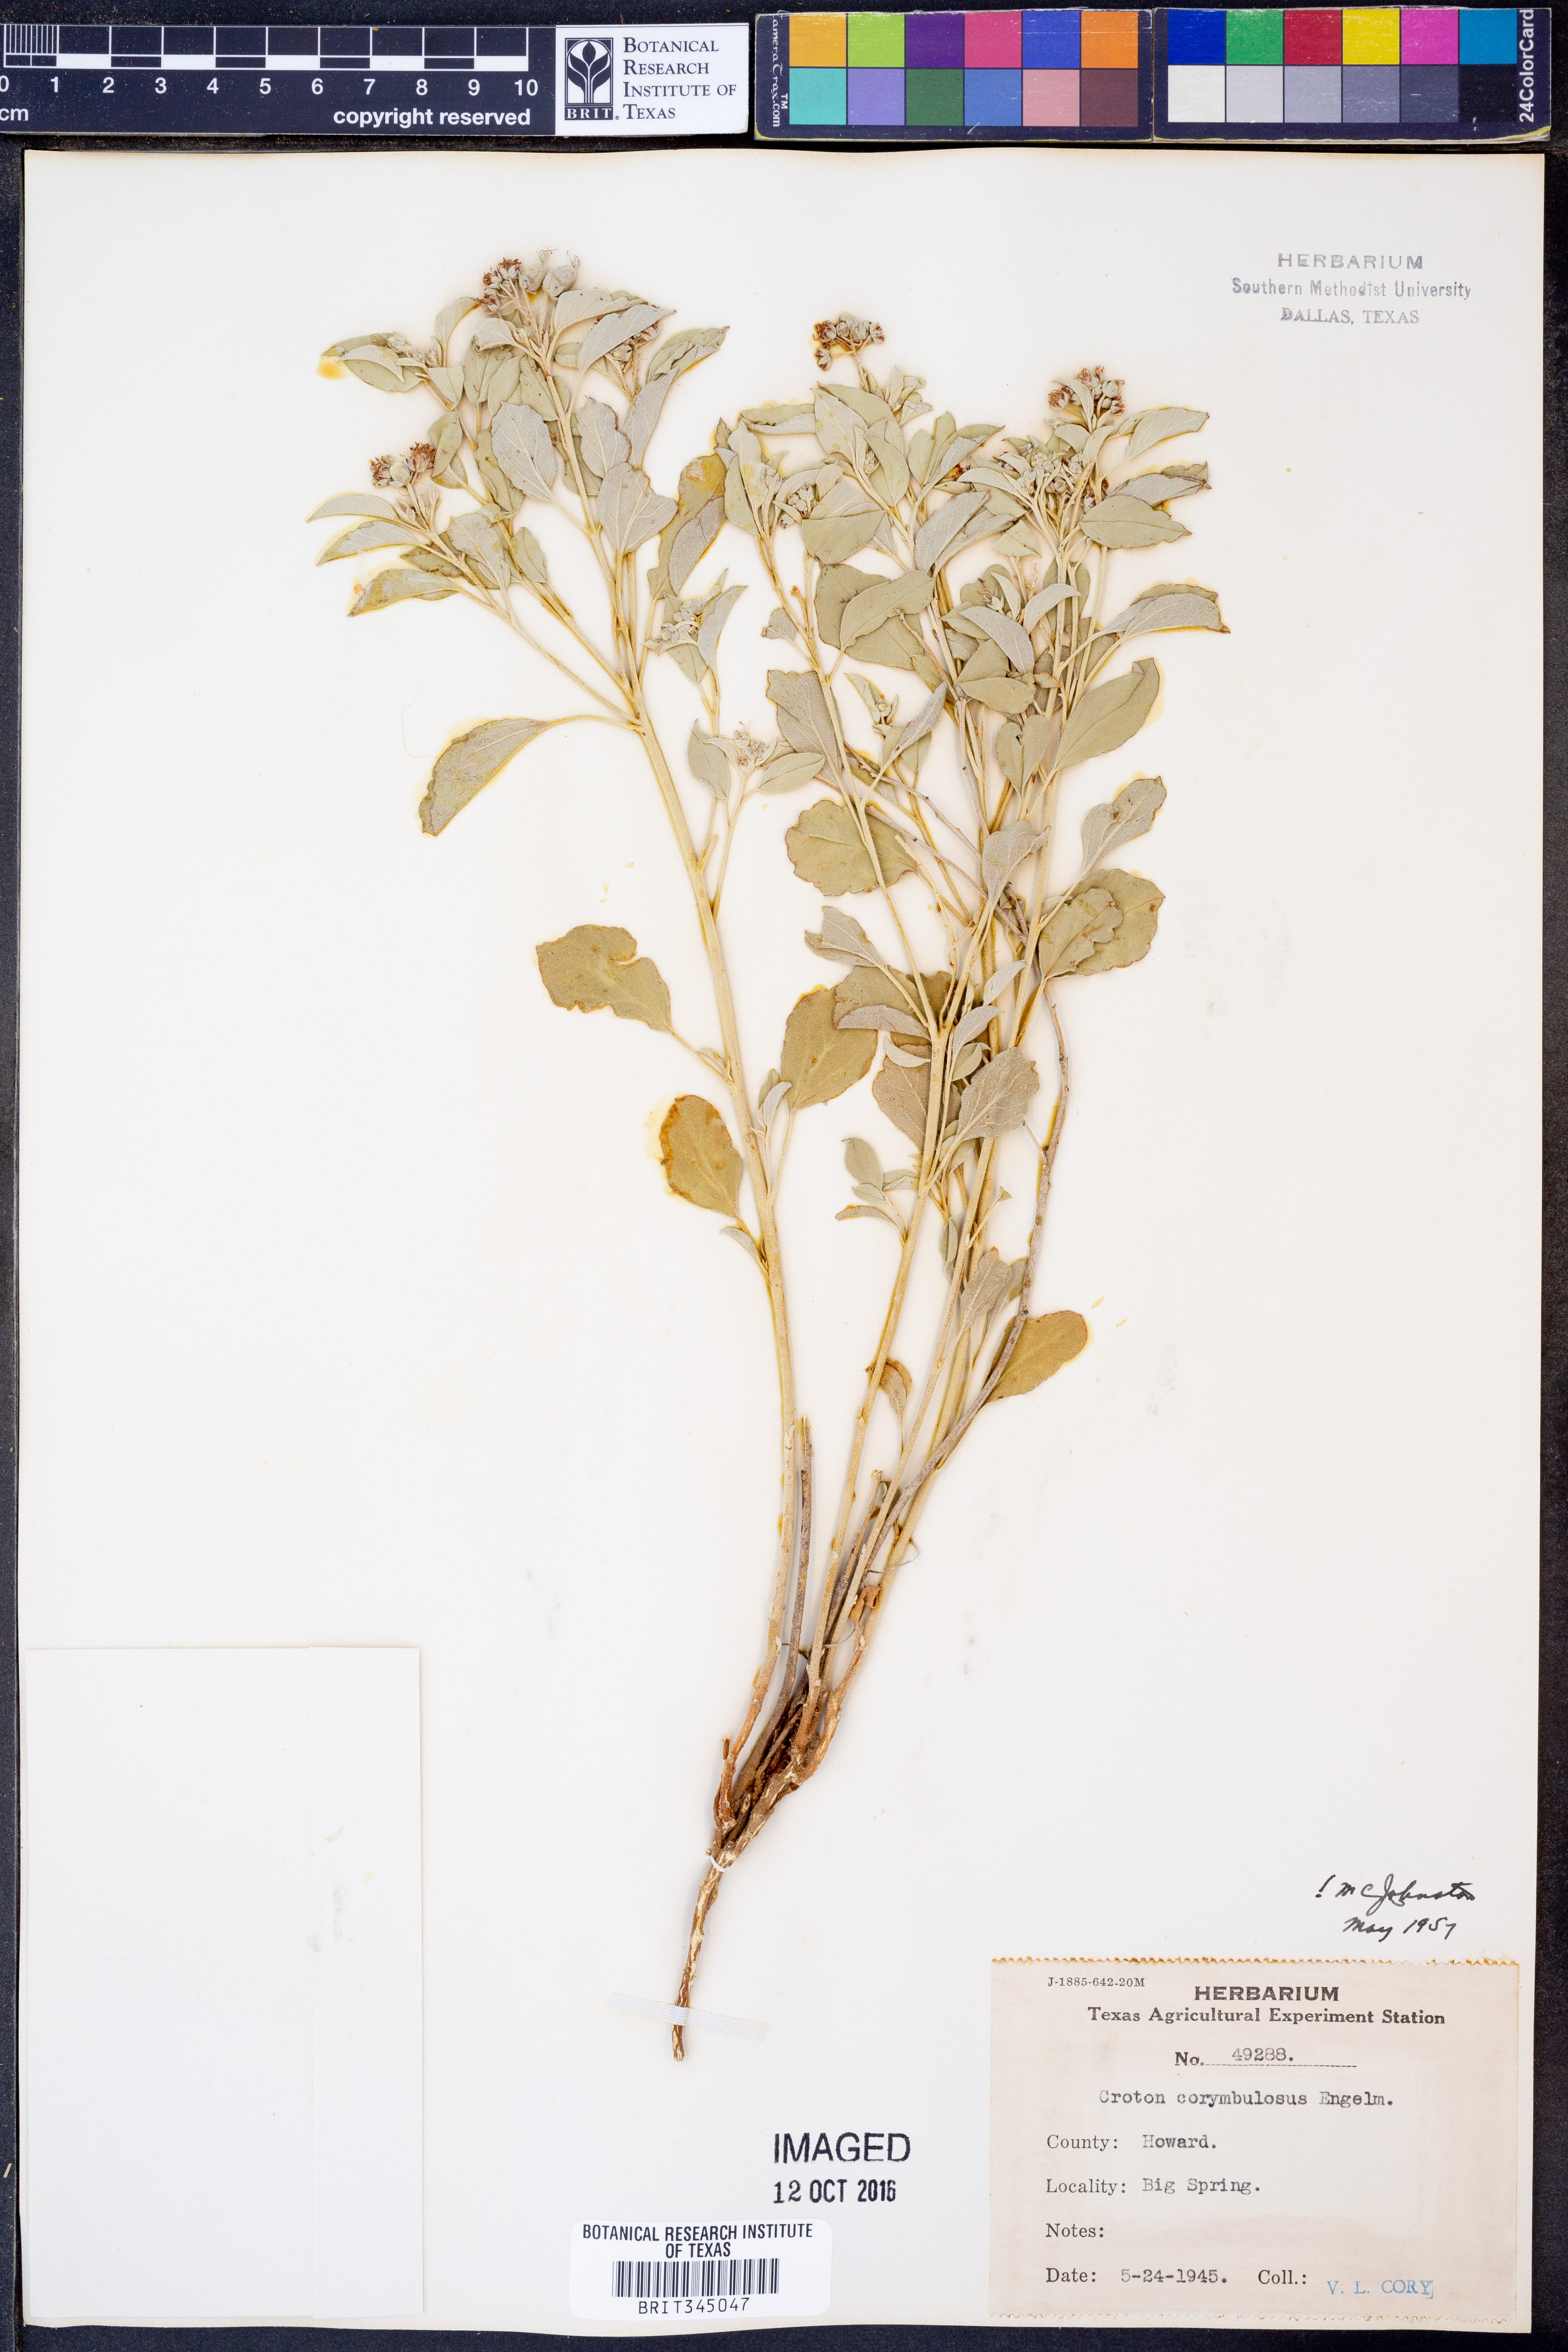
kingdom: Plantae
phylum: Tracheophyta
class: Magnoliopsida
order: Malpighiales
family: Euphorbiaceae
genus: Croton
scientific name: Croton pottsii
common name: Leatherweed
